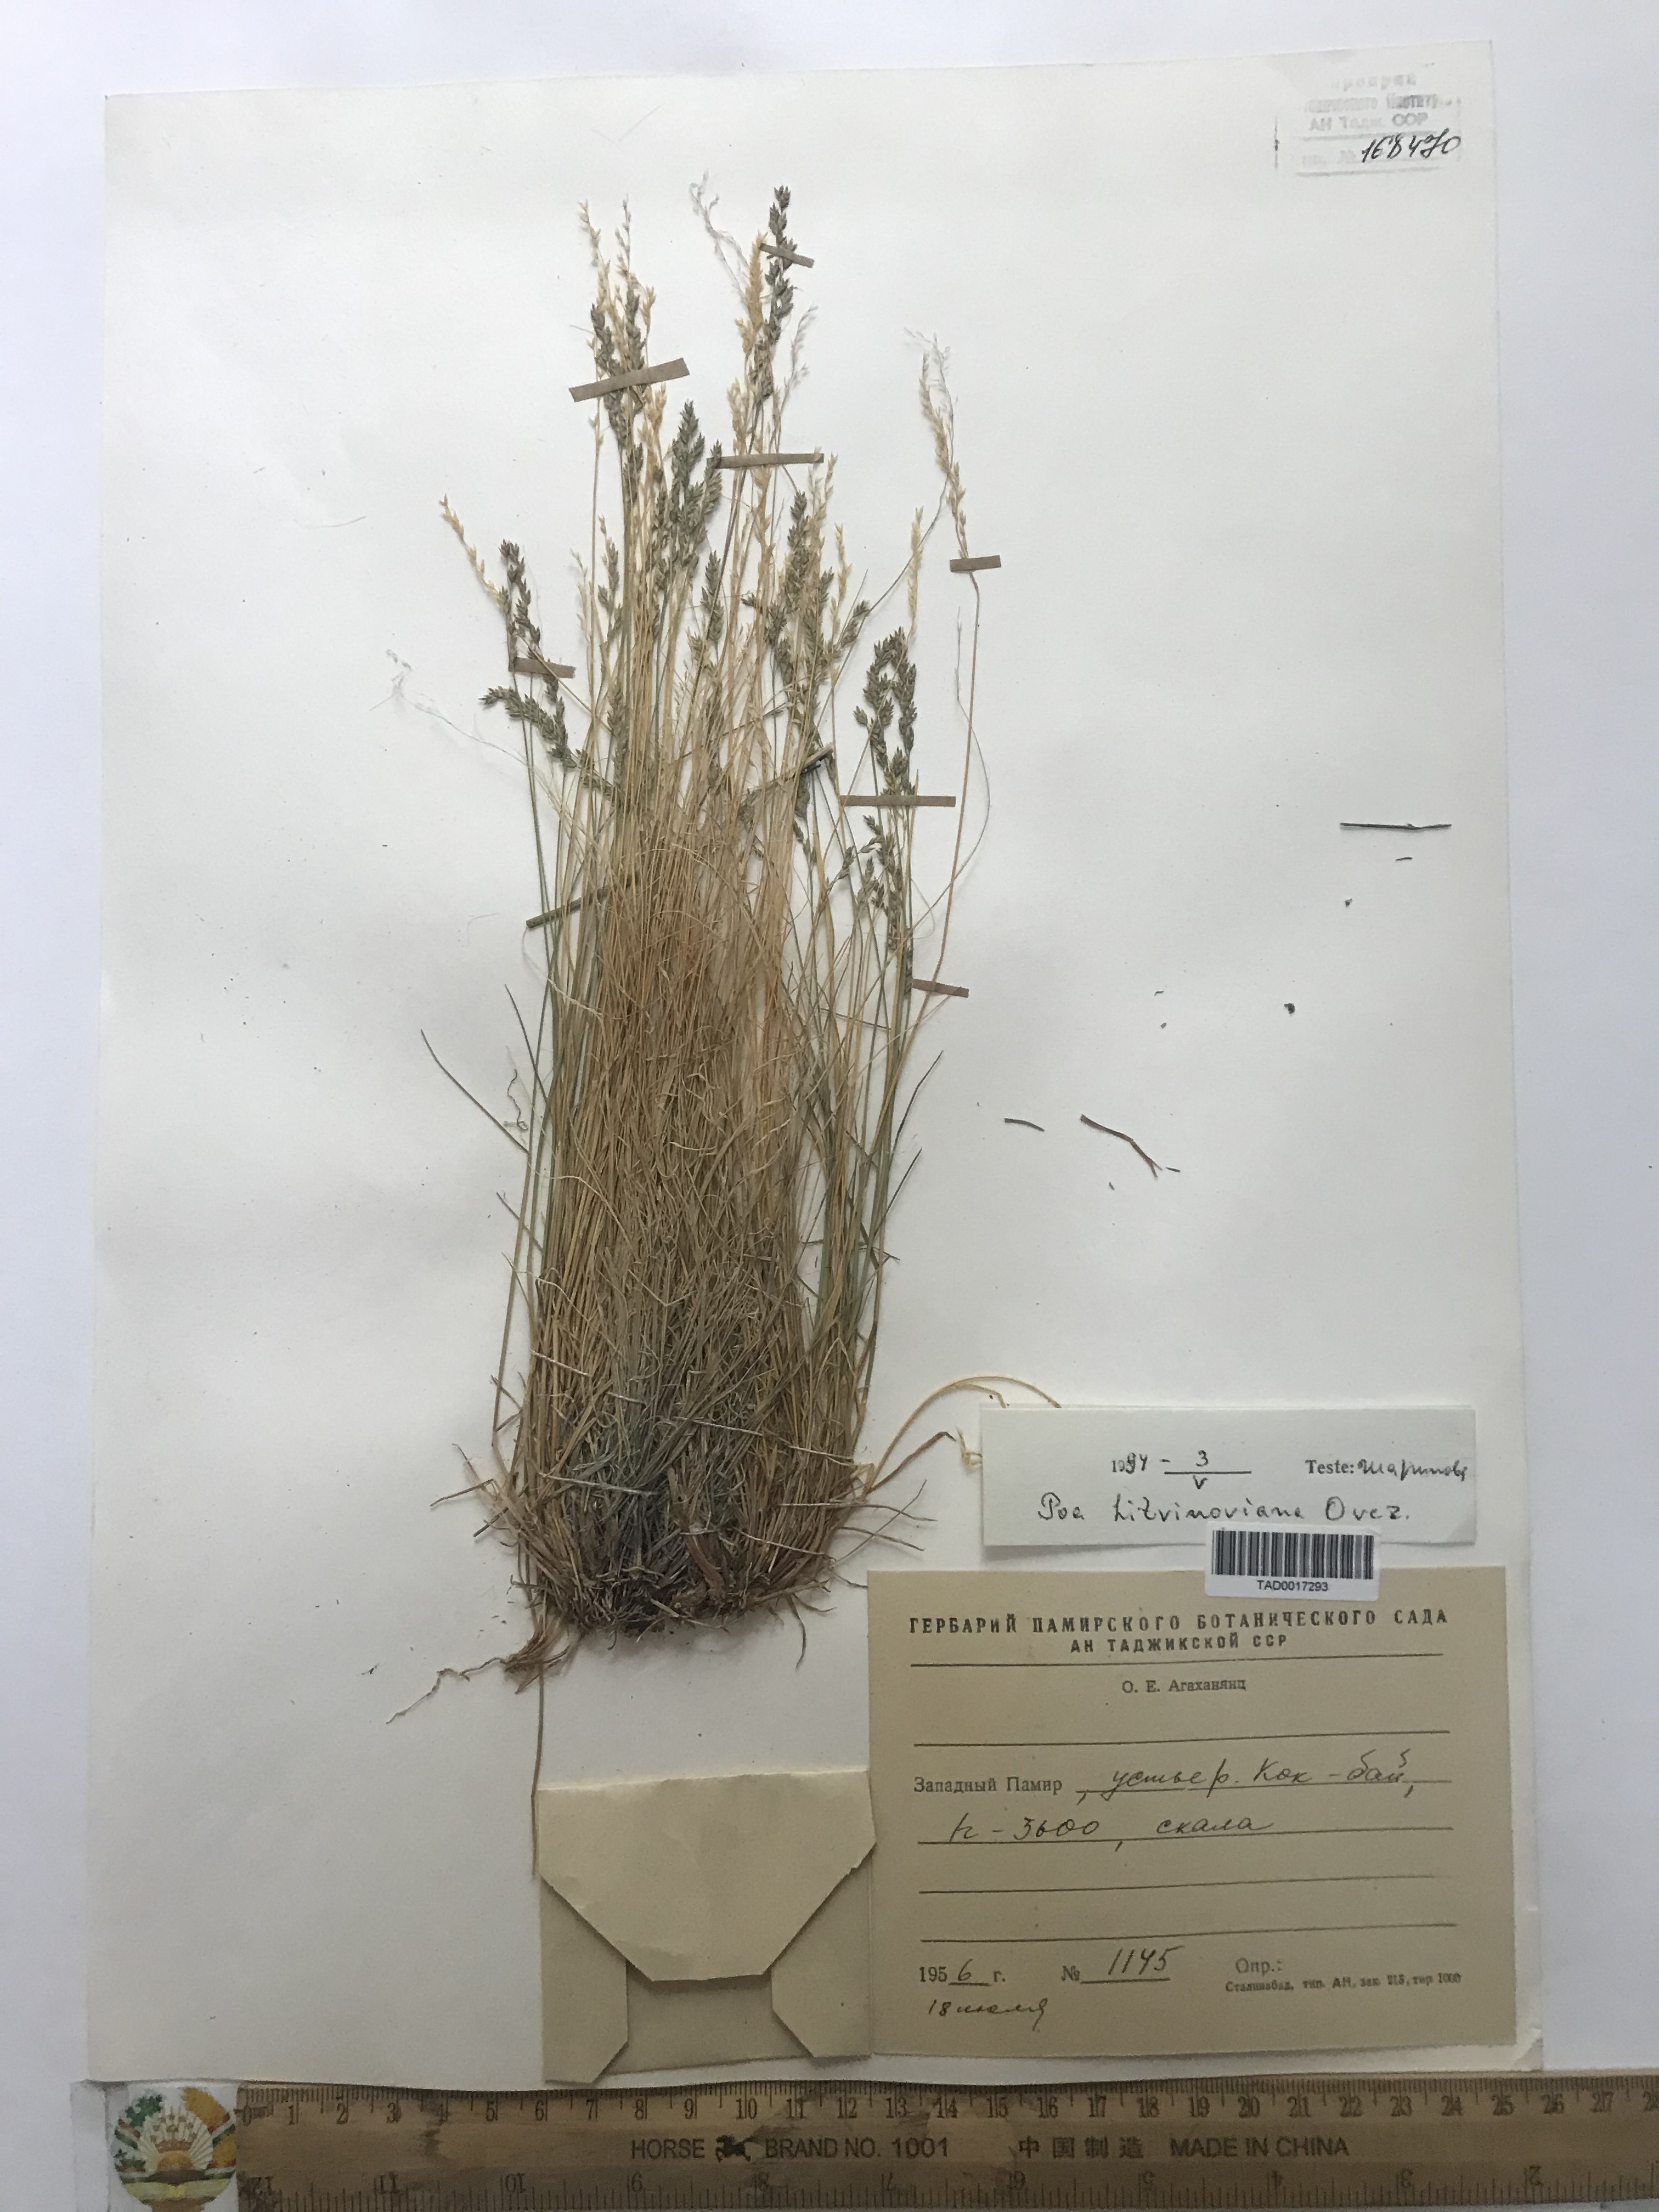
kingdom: Plantae
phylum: Tracheophyta
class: Liliopsida
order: Poales
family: Poaceae
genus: Poa
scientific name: Poa glauca
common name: Glaucous bluegrass
